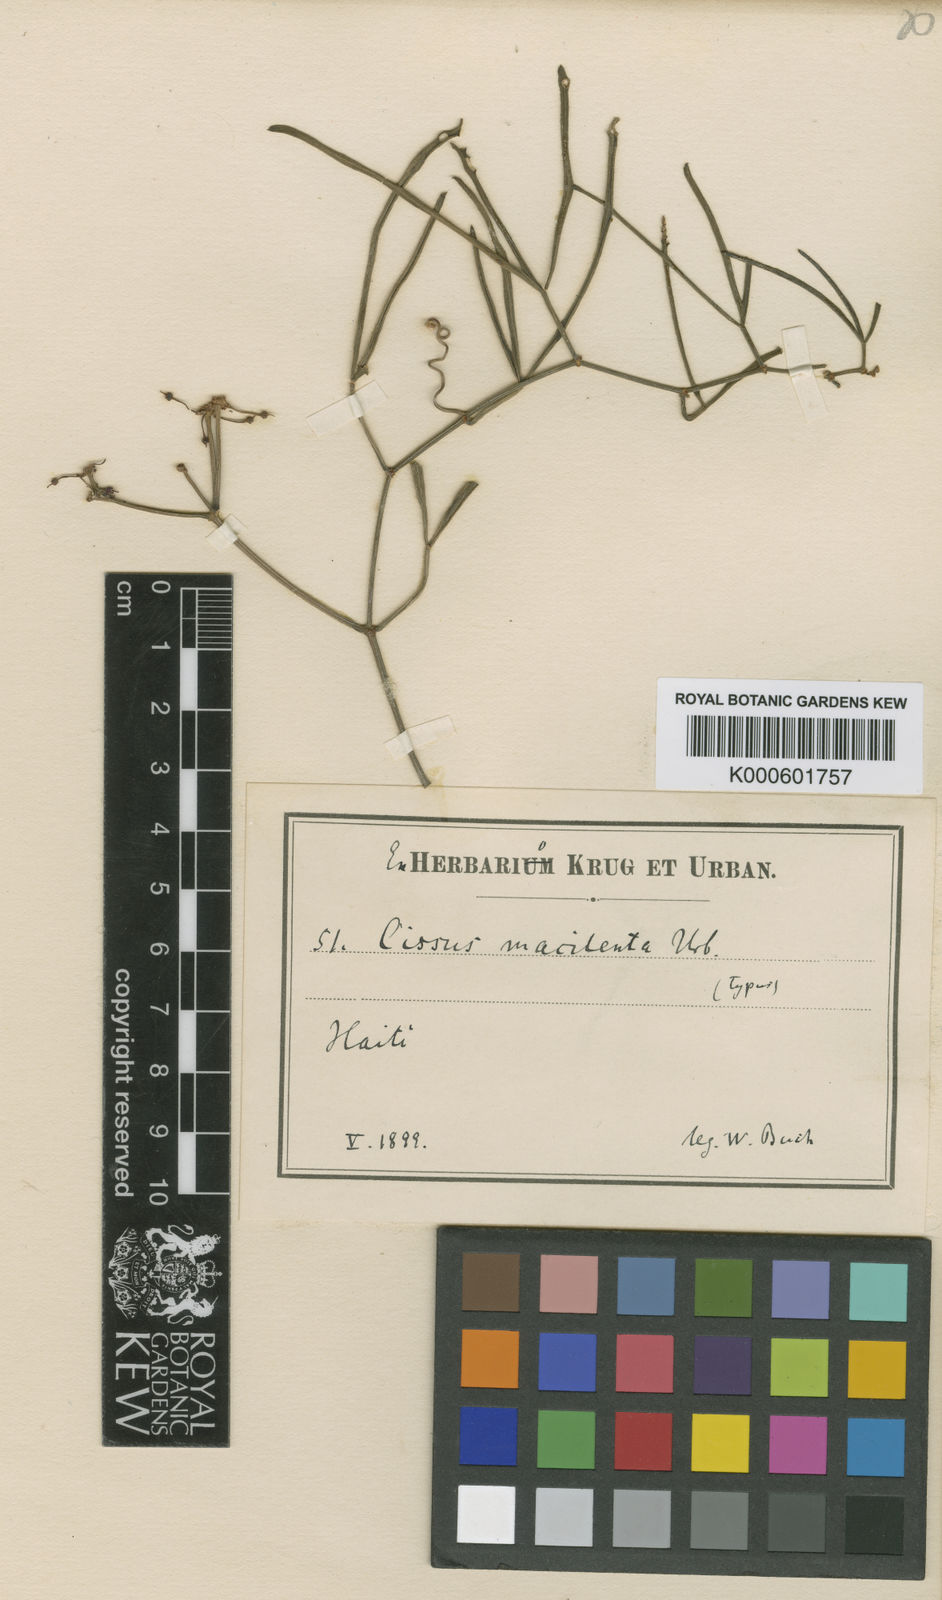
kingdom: Plantae
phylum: Tracheophyta
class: Magnoliopsida
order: Vitales
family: Vitaceae
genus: Cissus
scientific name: Cissus intermedia
